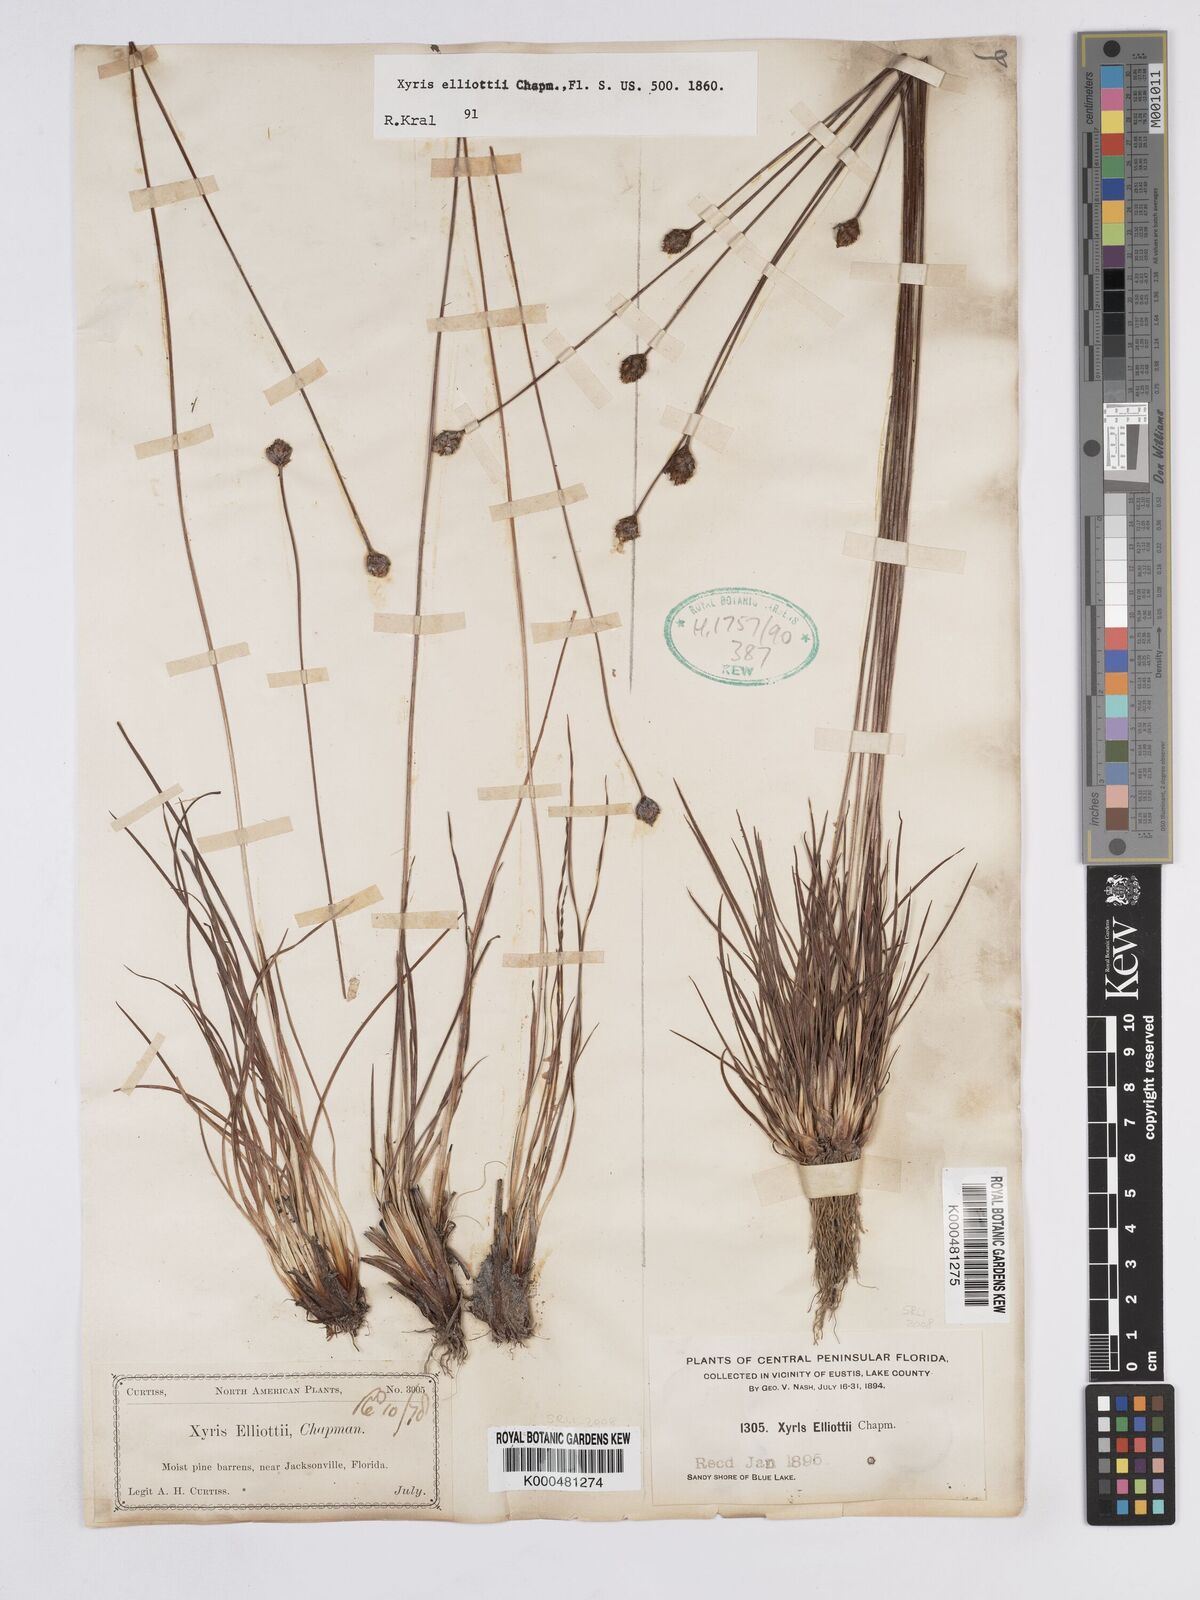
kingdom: Plantae
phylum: Tracheophyta
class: Liliopsida
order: Poales
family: Xyridaceae
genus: Xyris
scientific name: Xyris elliottii
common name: Elliot's yelloweyed grass
